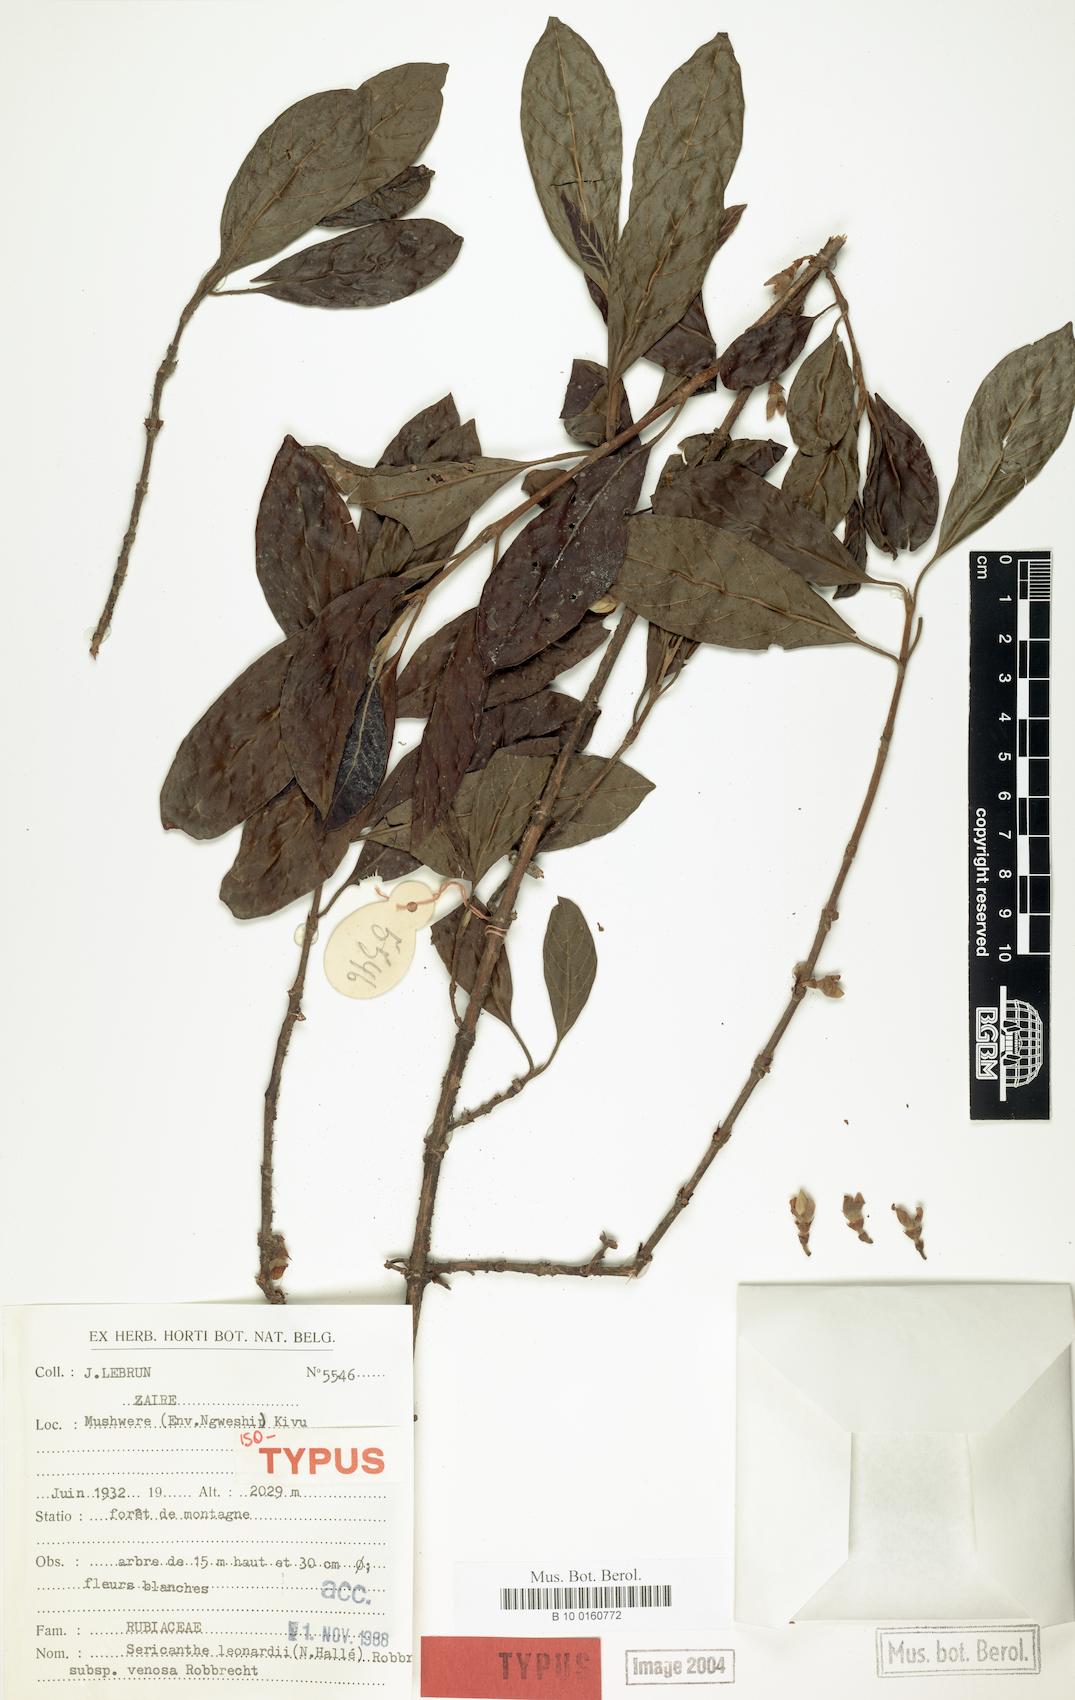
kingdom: Plantae
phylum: Tracheophyta
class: Magnoliopsida
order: Gentianales
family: Rubiaceae
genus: Sericanthe
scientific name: Sericanthe leonardii
